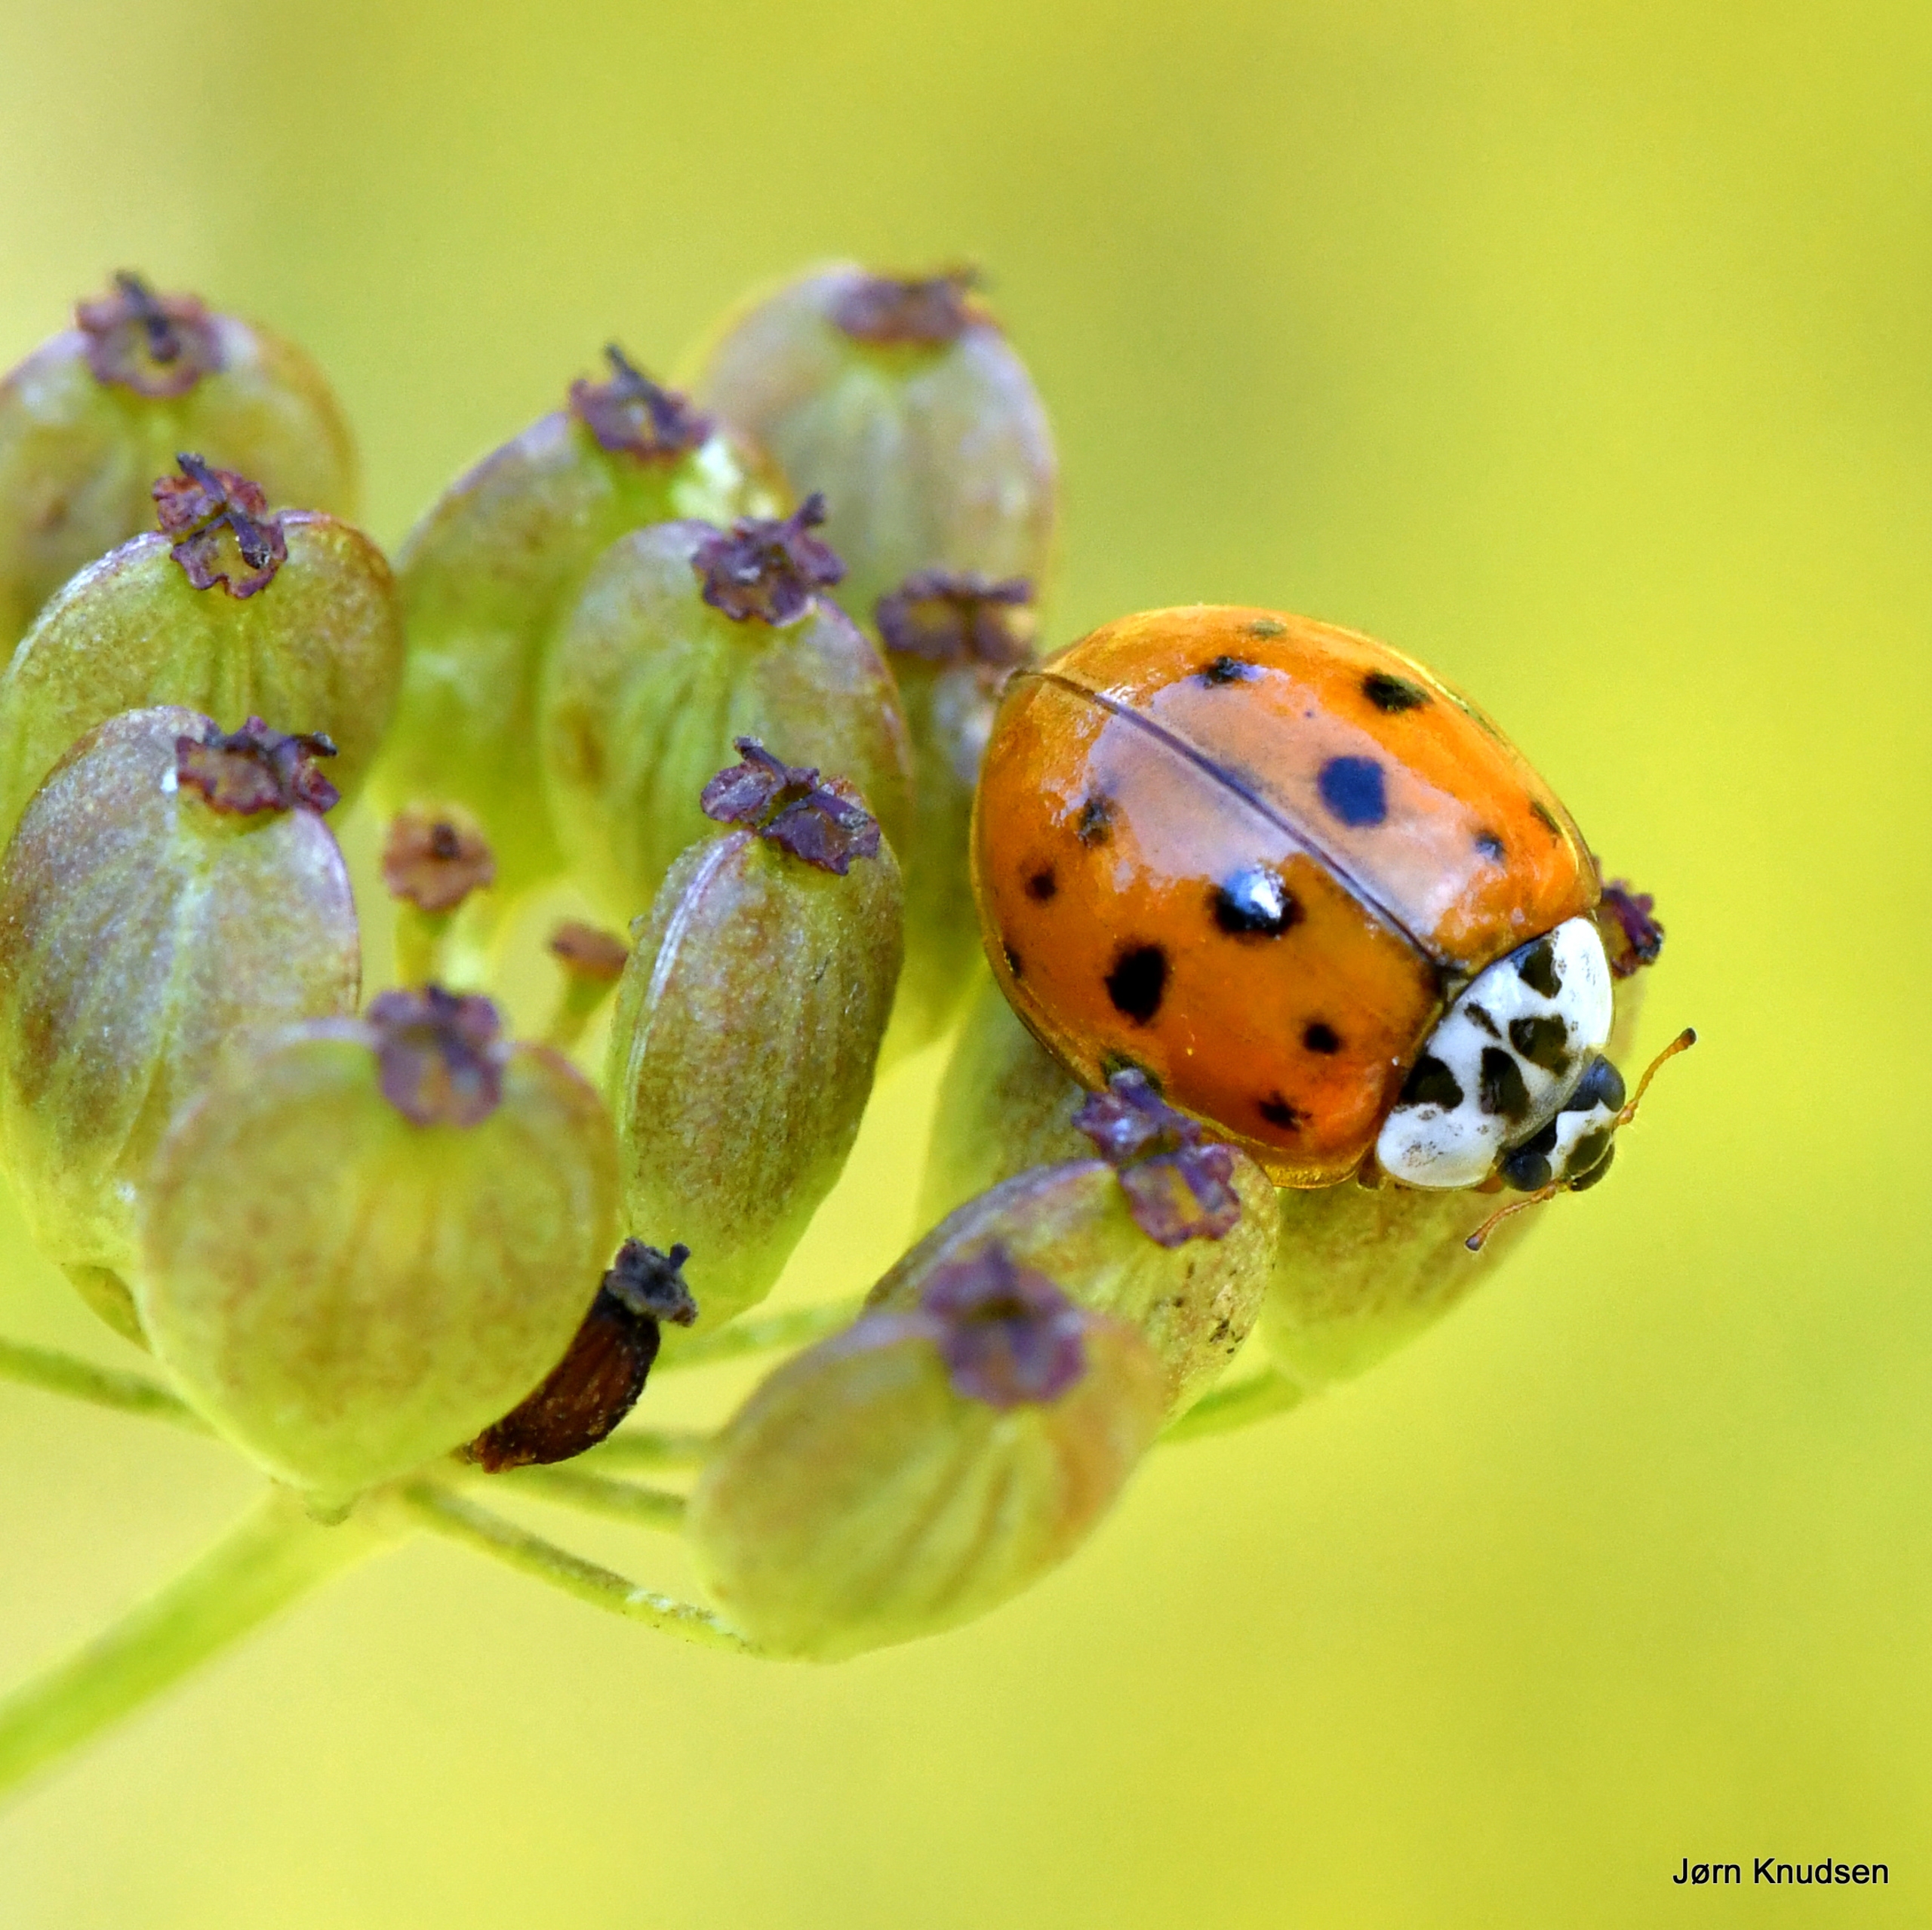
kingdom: Animalia
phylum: Arthropoda
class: Insecta
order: Coleoptera
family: Coccinellidae
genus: Harmonia
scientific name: Harmonia axyridis
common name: Harlekinmariehøne
